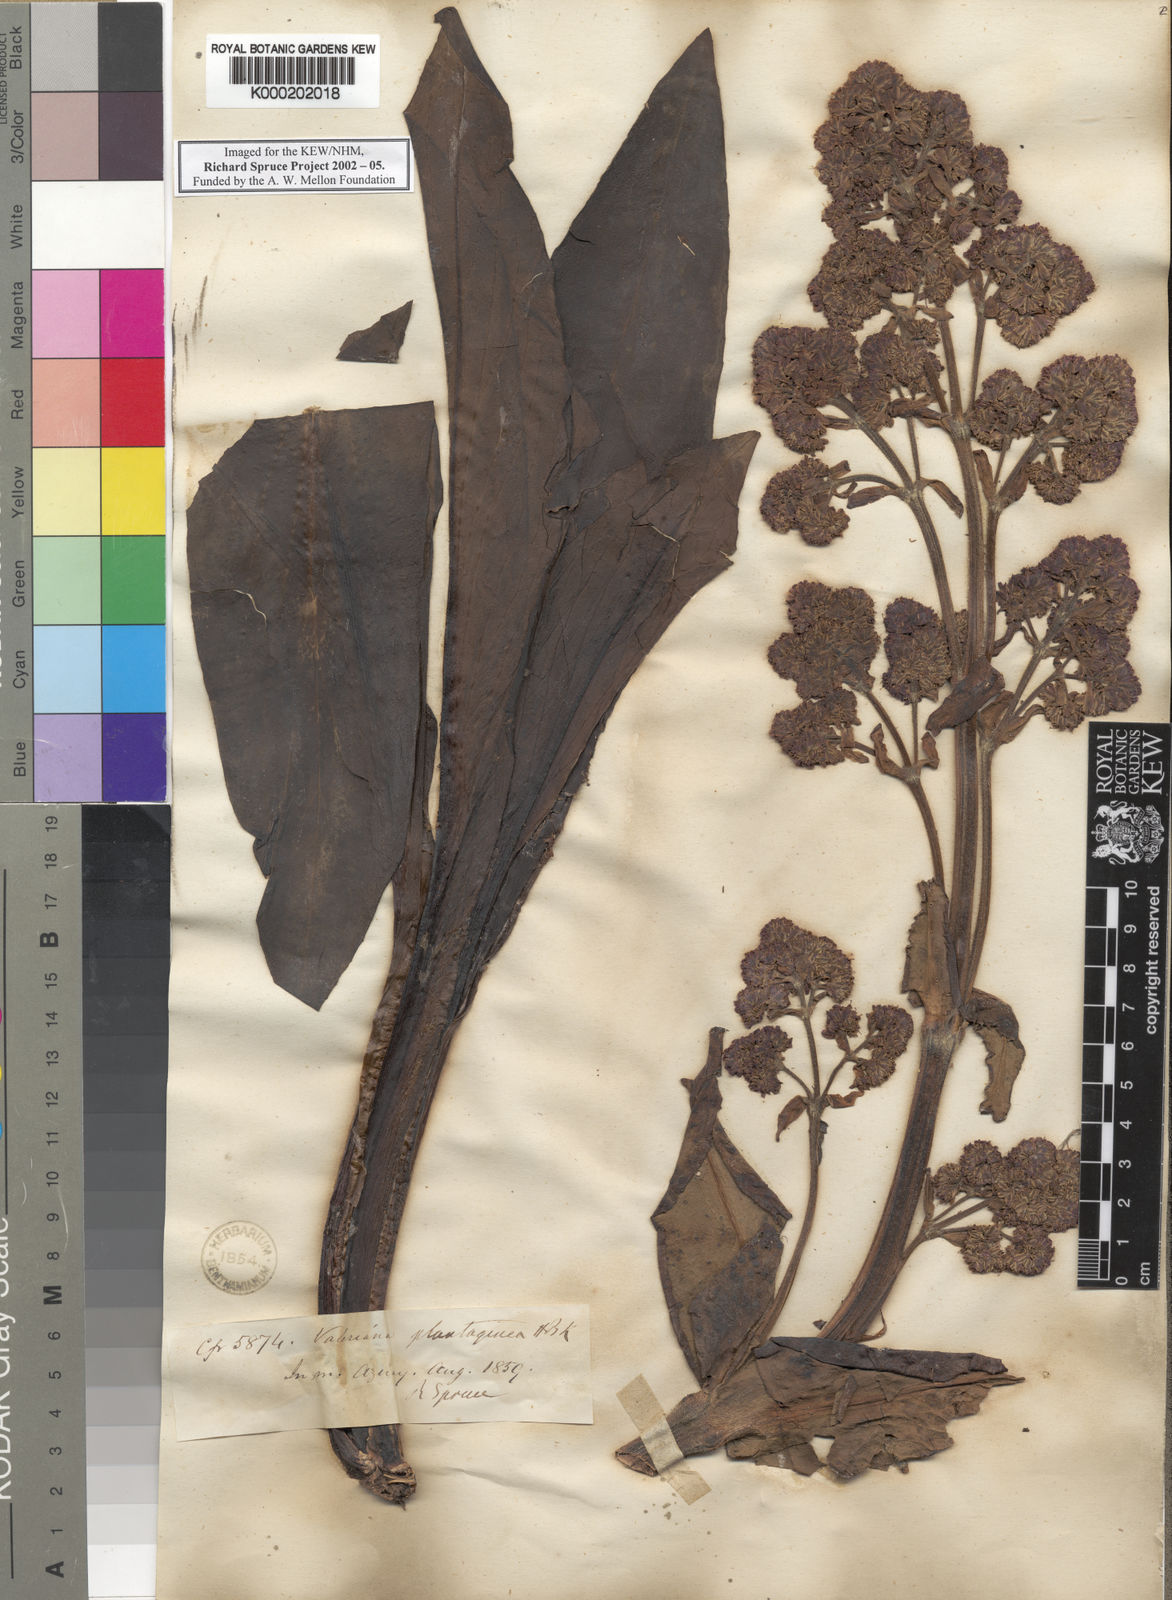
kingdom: Plantae
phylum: Tracheophyta
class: Magnoliopsida
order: Dipsacales
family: Caprifoliaceae
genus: Valeriana
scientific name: Valeriana pilosa
